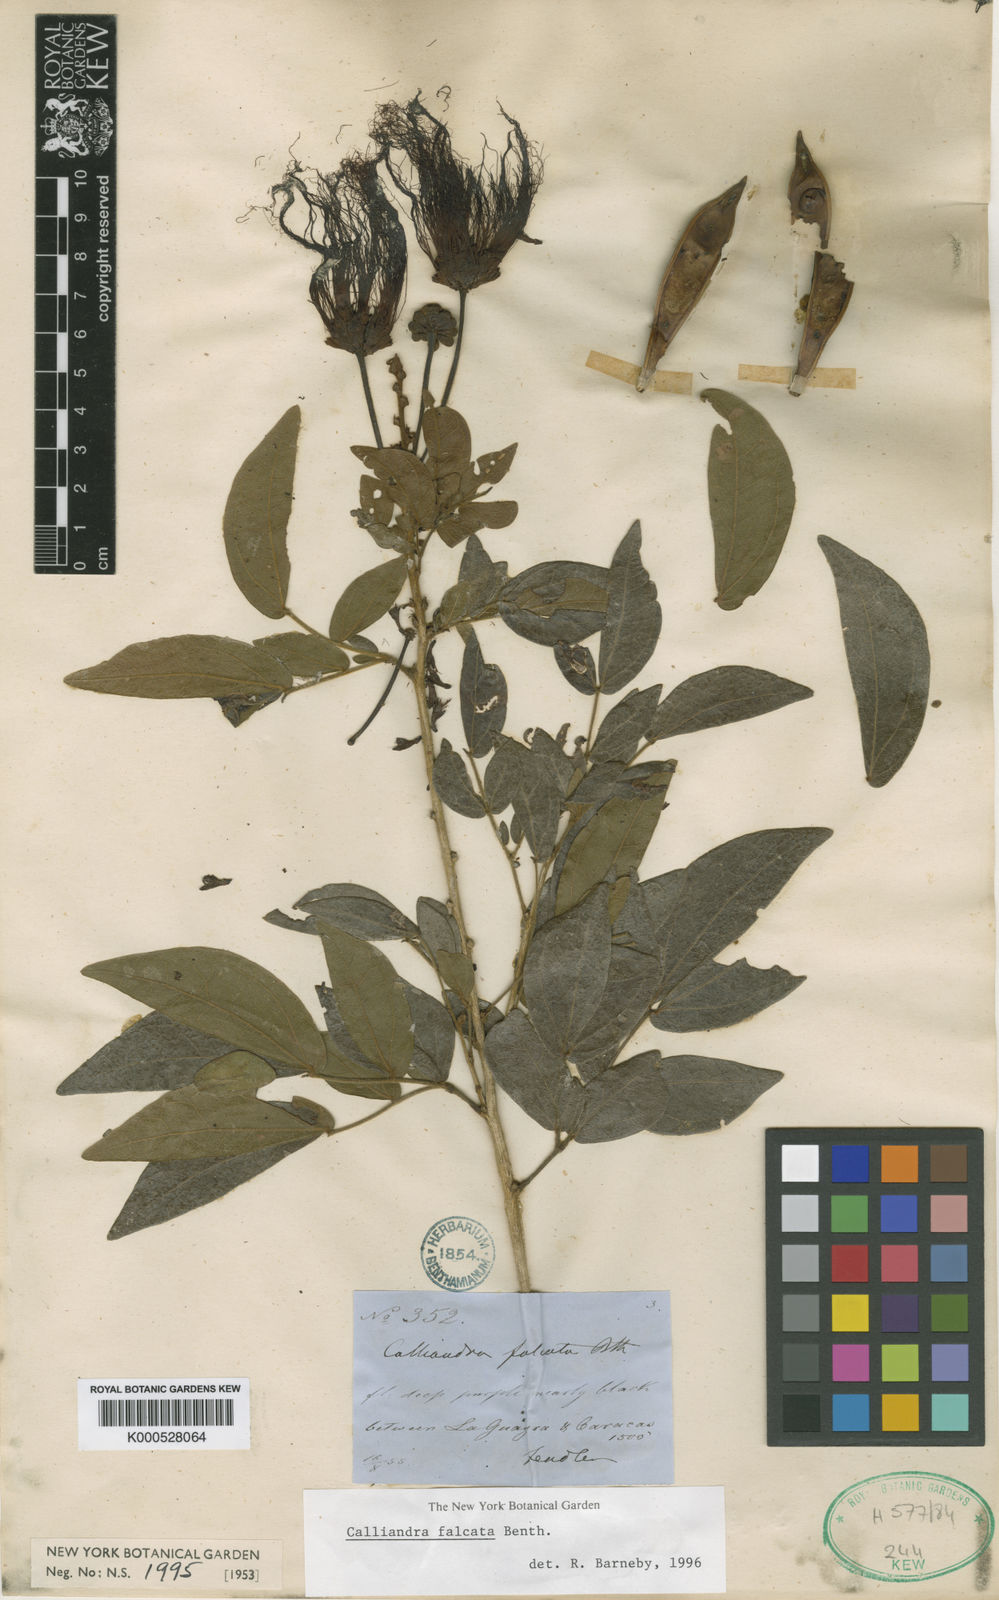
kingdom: Plantae
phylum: Tracheophyta
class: Magnoliopsida
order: Fabales
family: Fabaceae
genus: Calliandra
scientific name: Calliandra falcata
